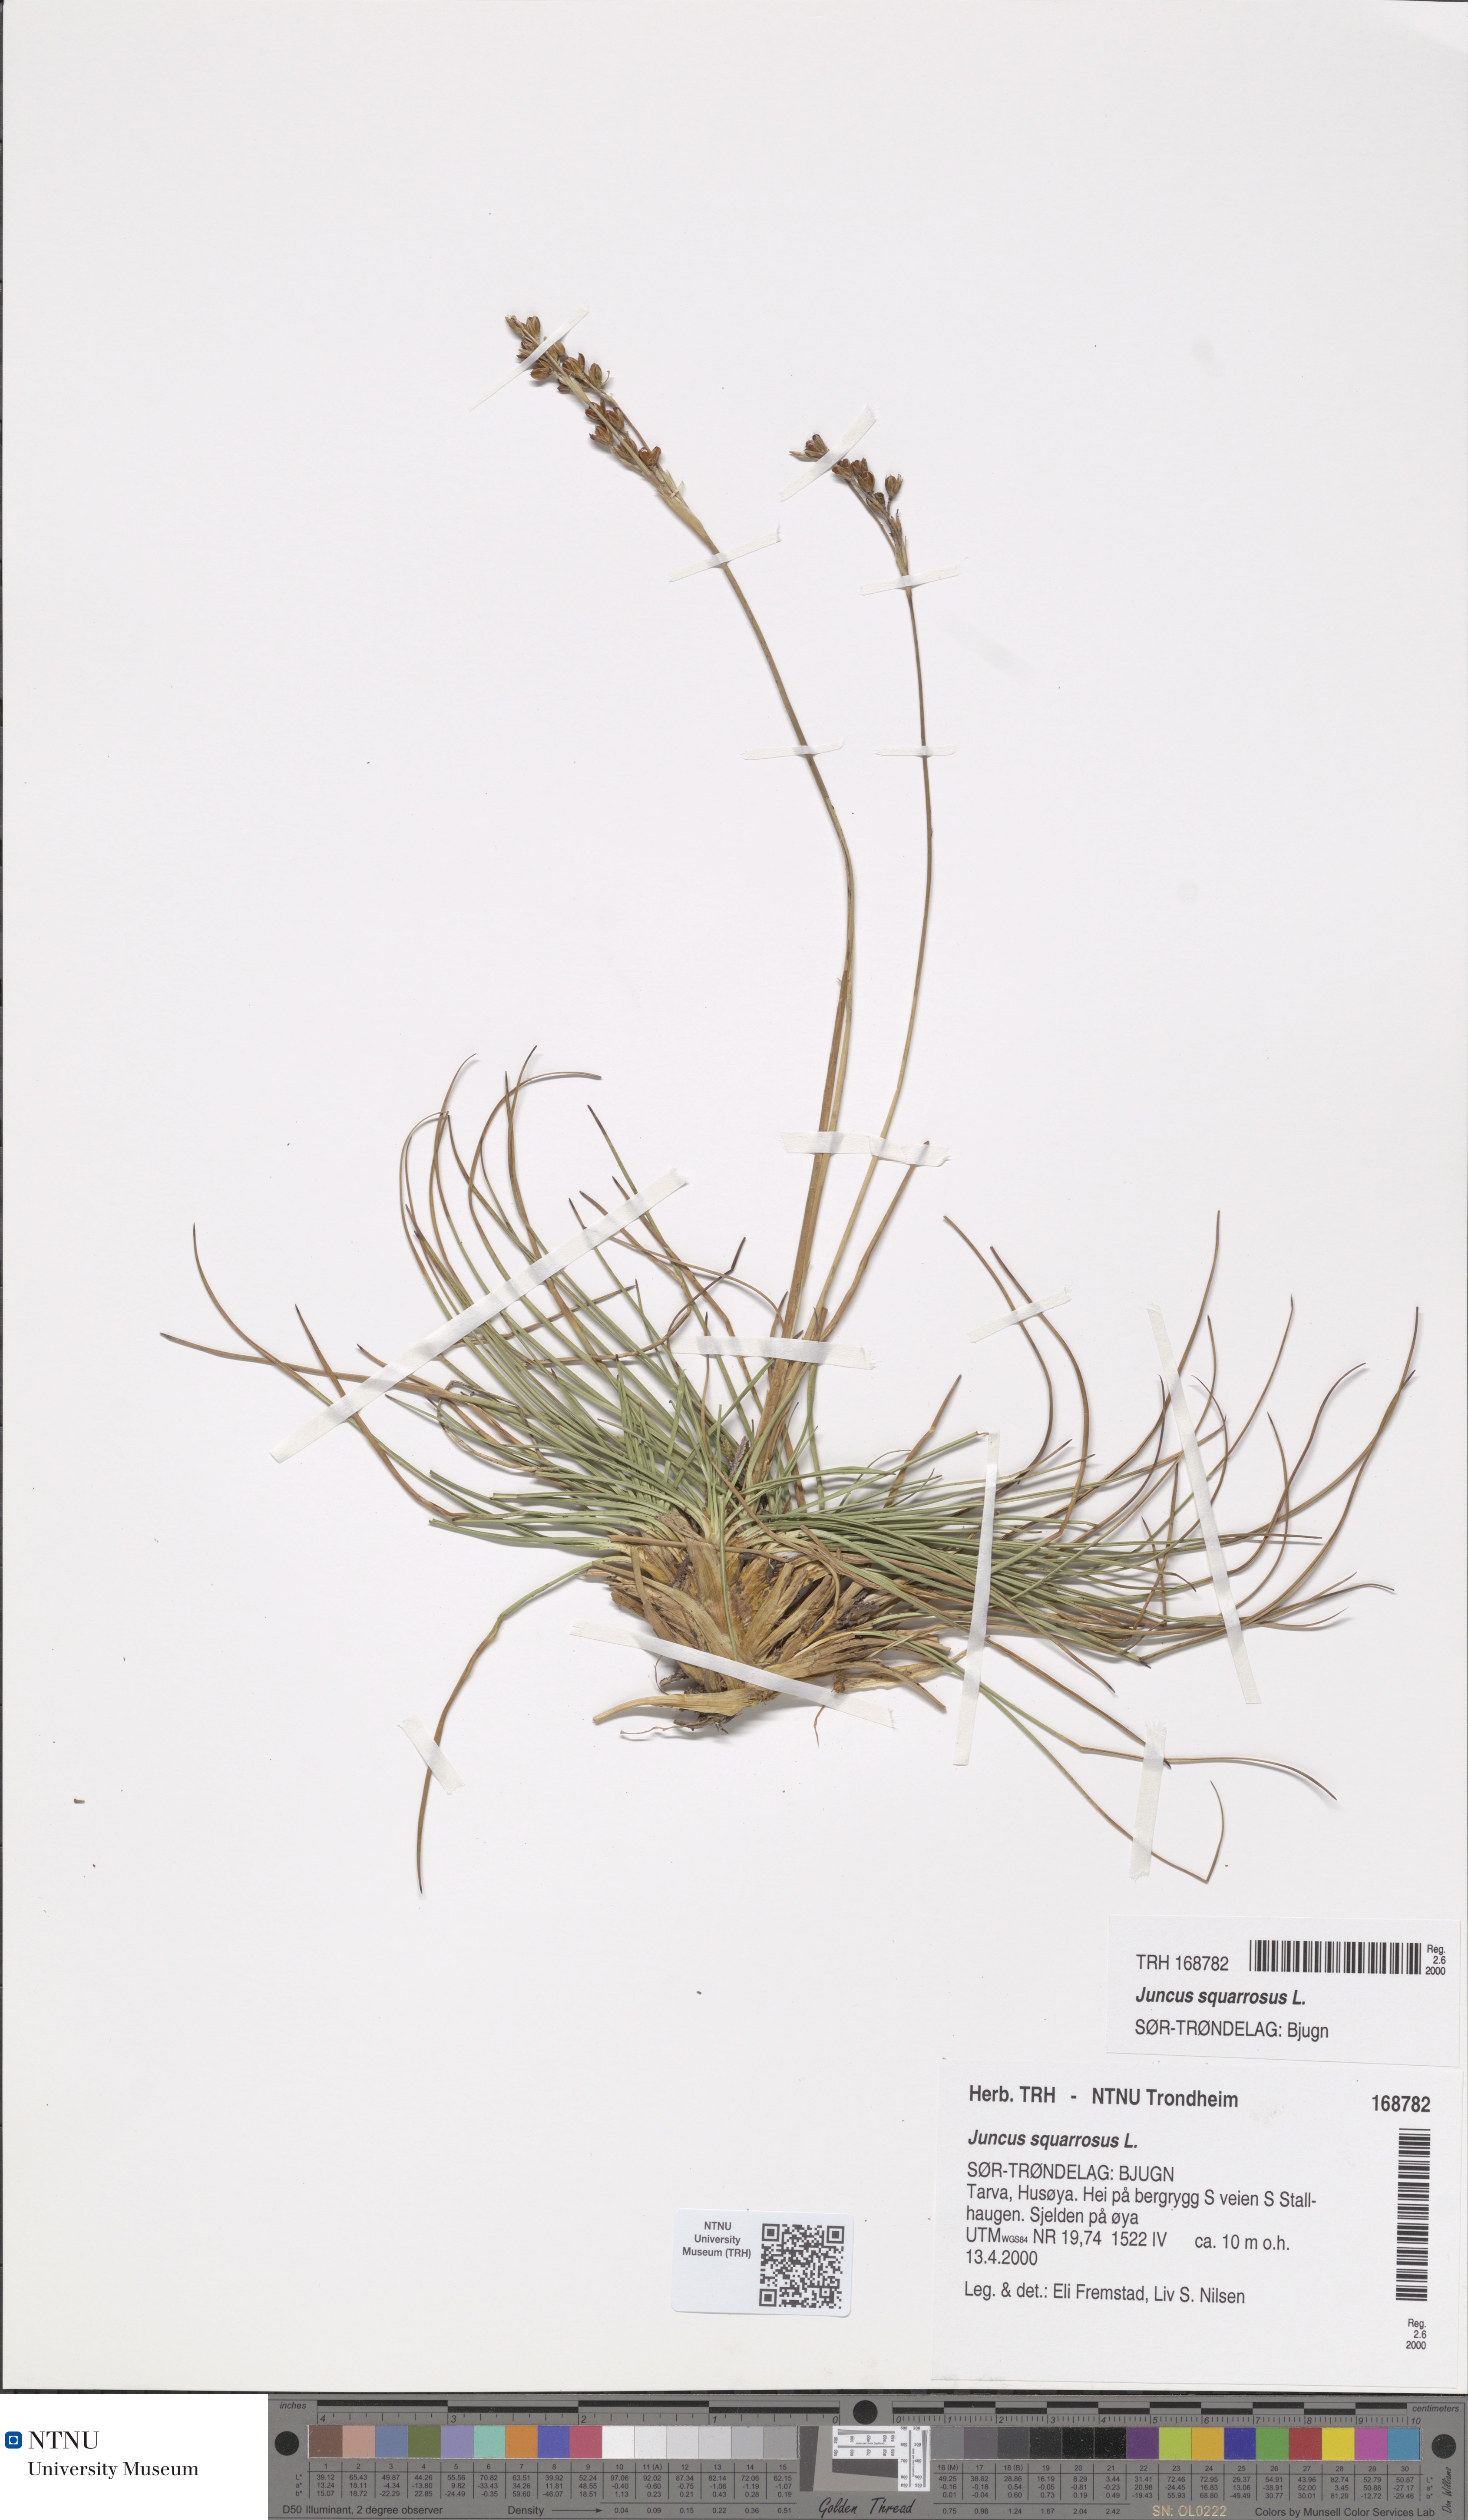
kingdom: Plantae
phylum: Tracheophyta
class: Liliopsida
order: Poales
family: Juncaceae
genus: Juncus
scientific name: Juncus squarrosus
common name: Heath rush
